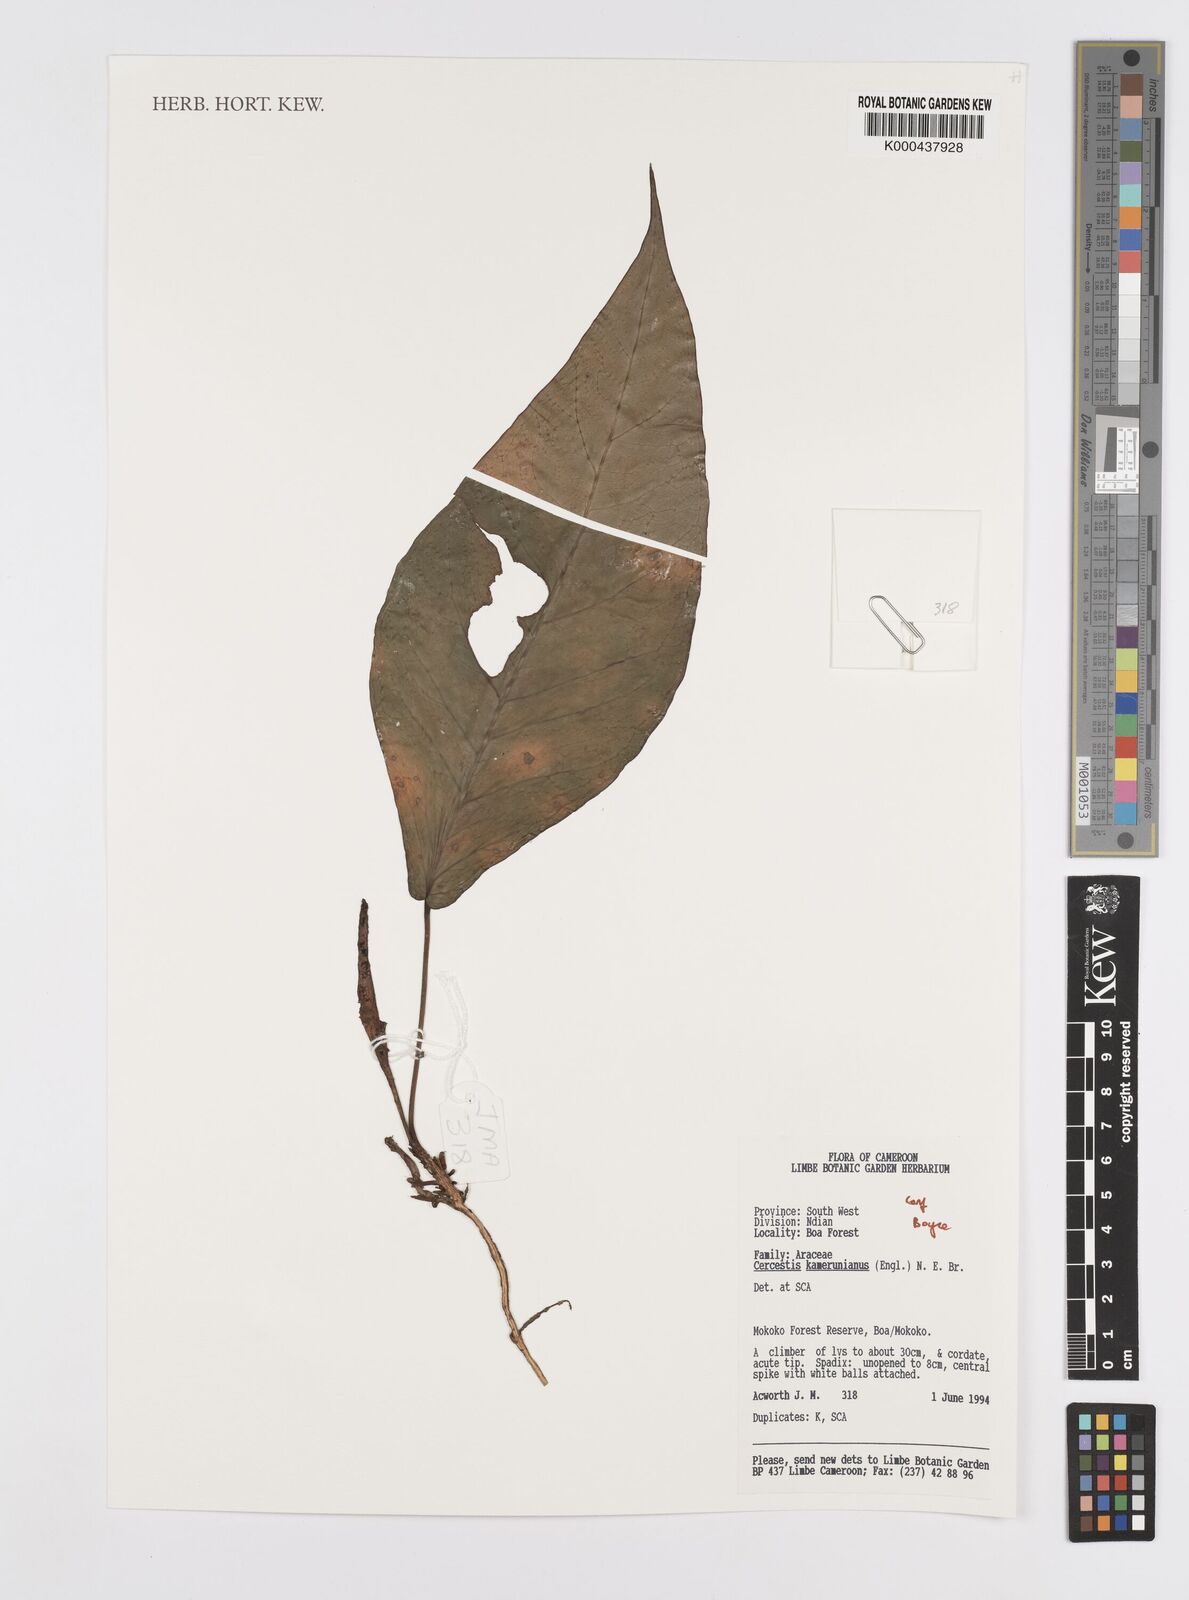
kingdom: Plantae
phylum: Tracheophyta
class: Liliopsida
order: Alismatales
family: Araceae
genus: Cercestis
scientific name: Cercestis kamerunianus
